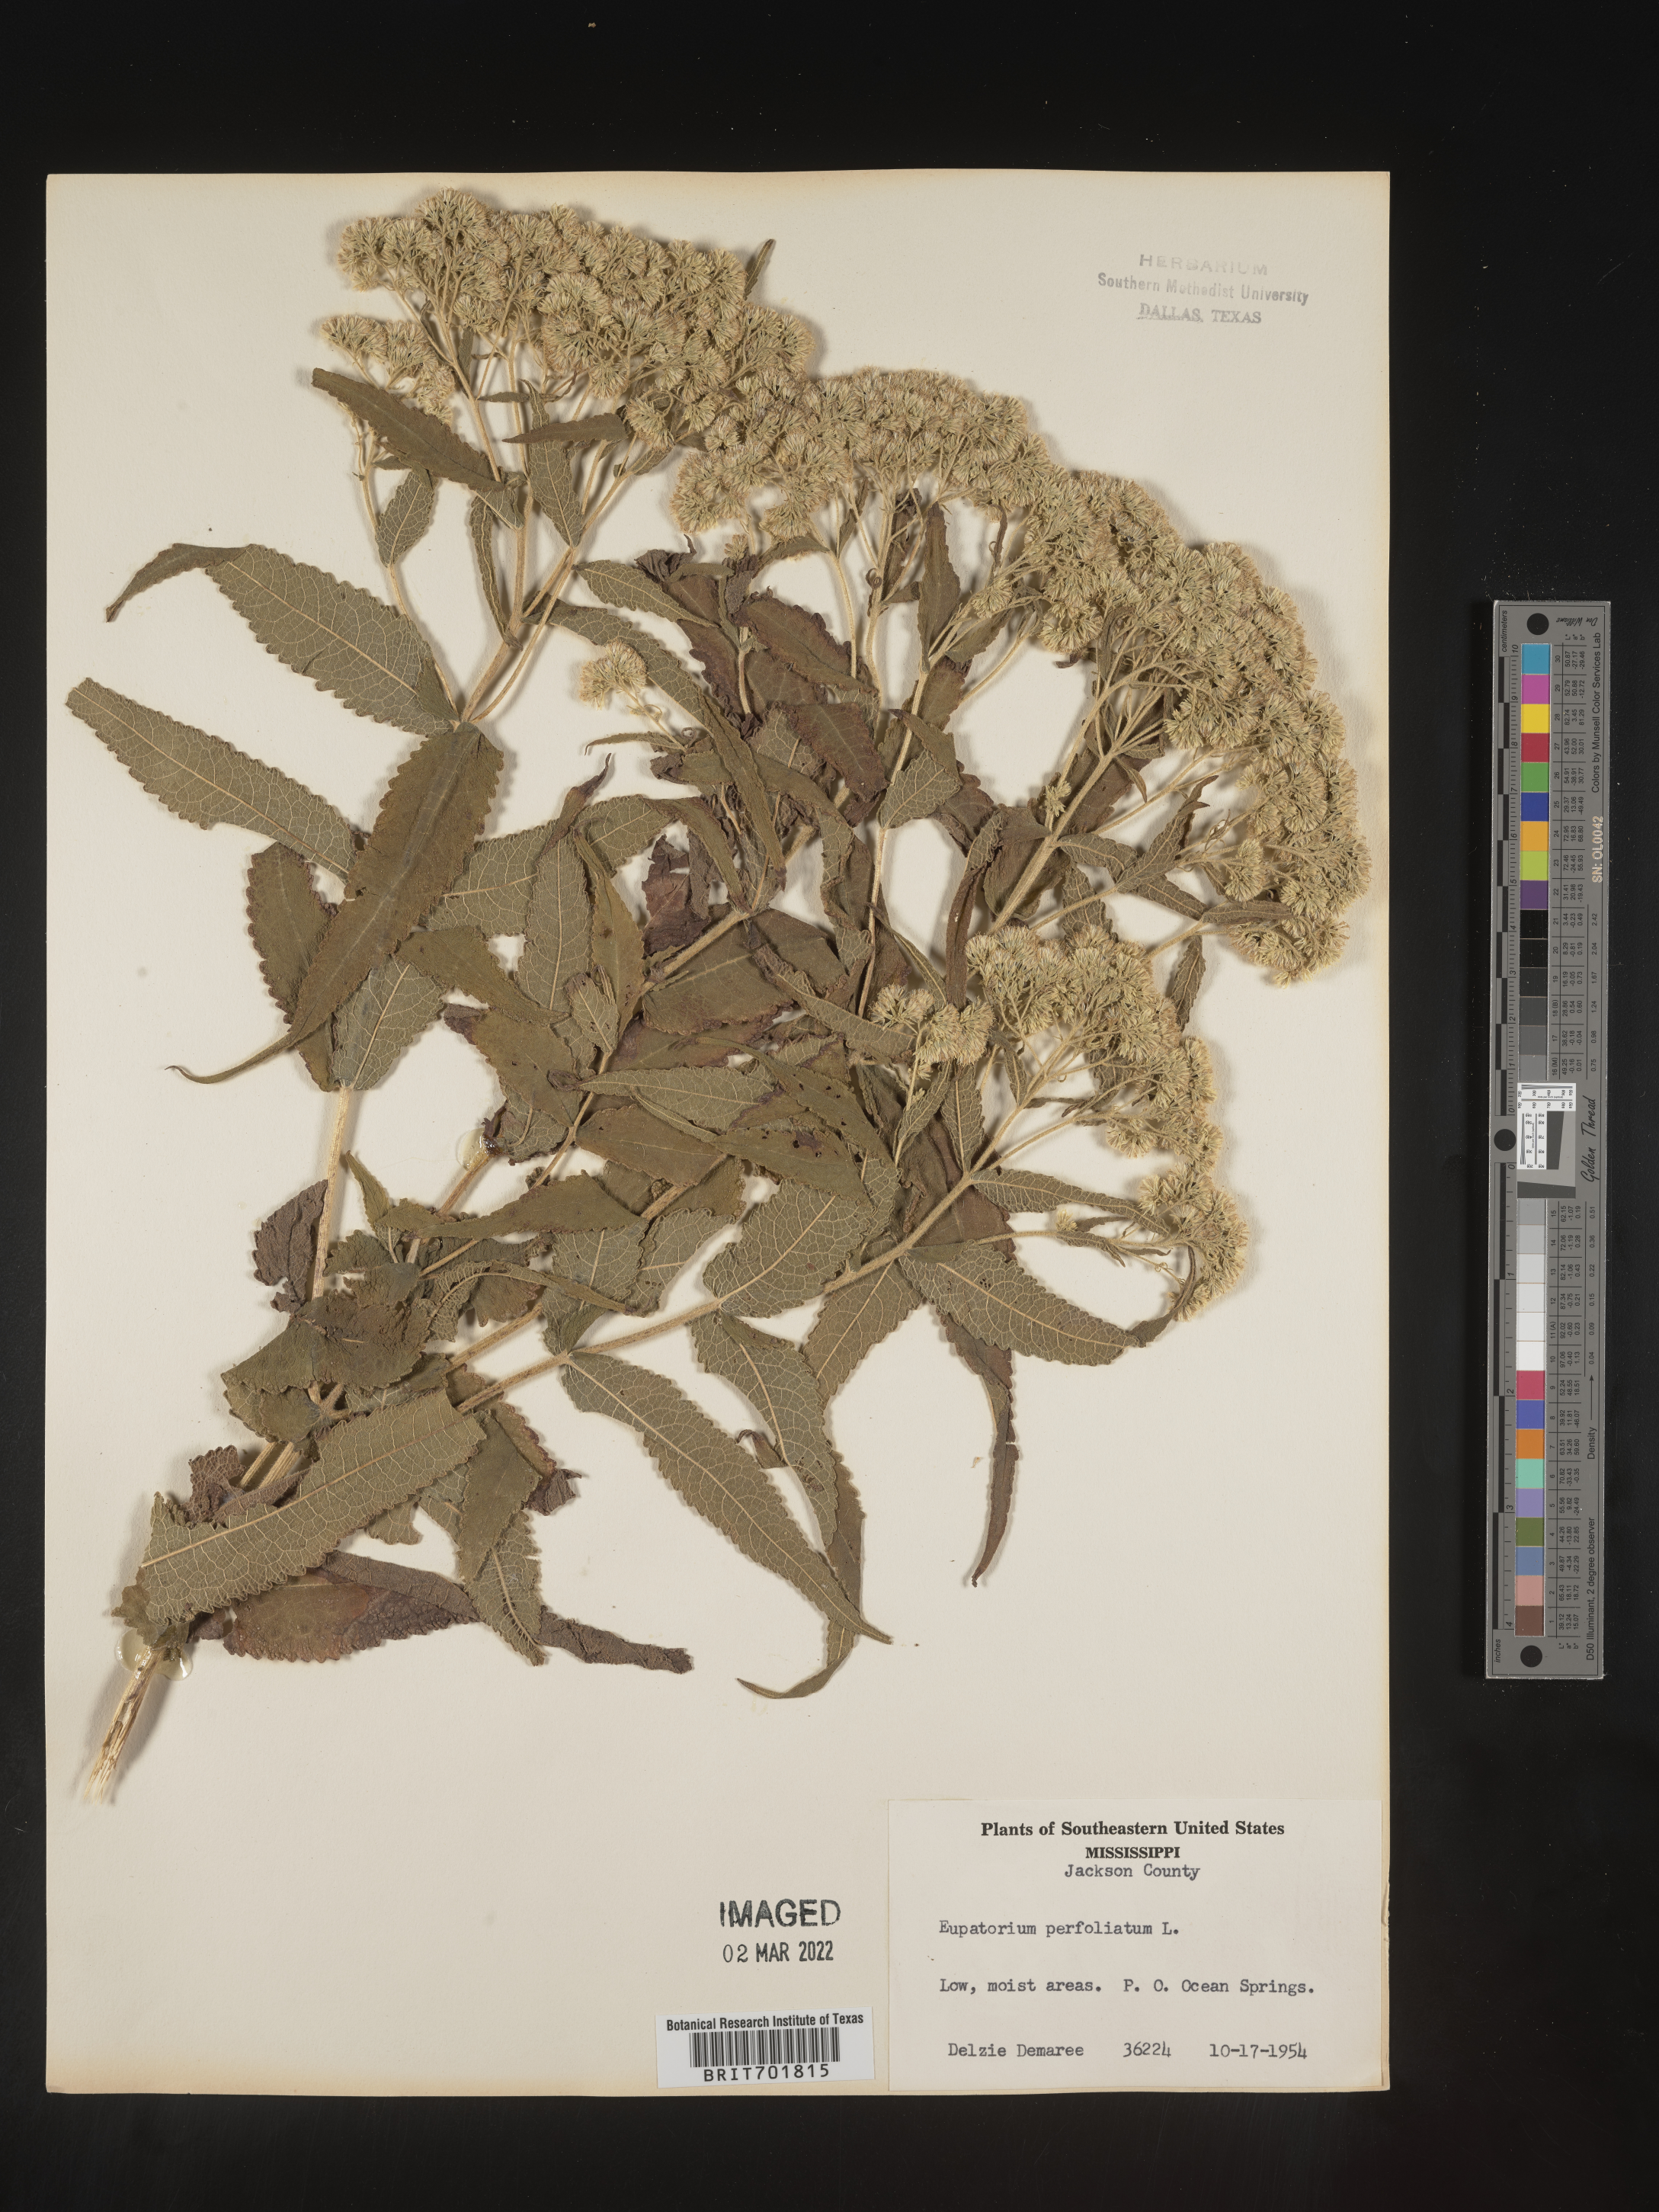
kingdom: Plantae
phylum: Tracheophyta
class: Magnoliopsida
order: Asterales
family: Asteraceae
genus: Eupatorium
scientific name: Eupatorium perfoliatum
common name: Boneset
